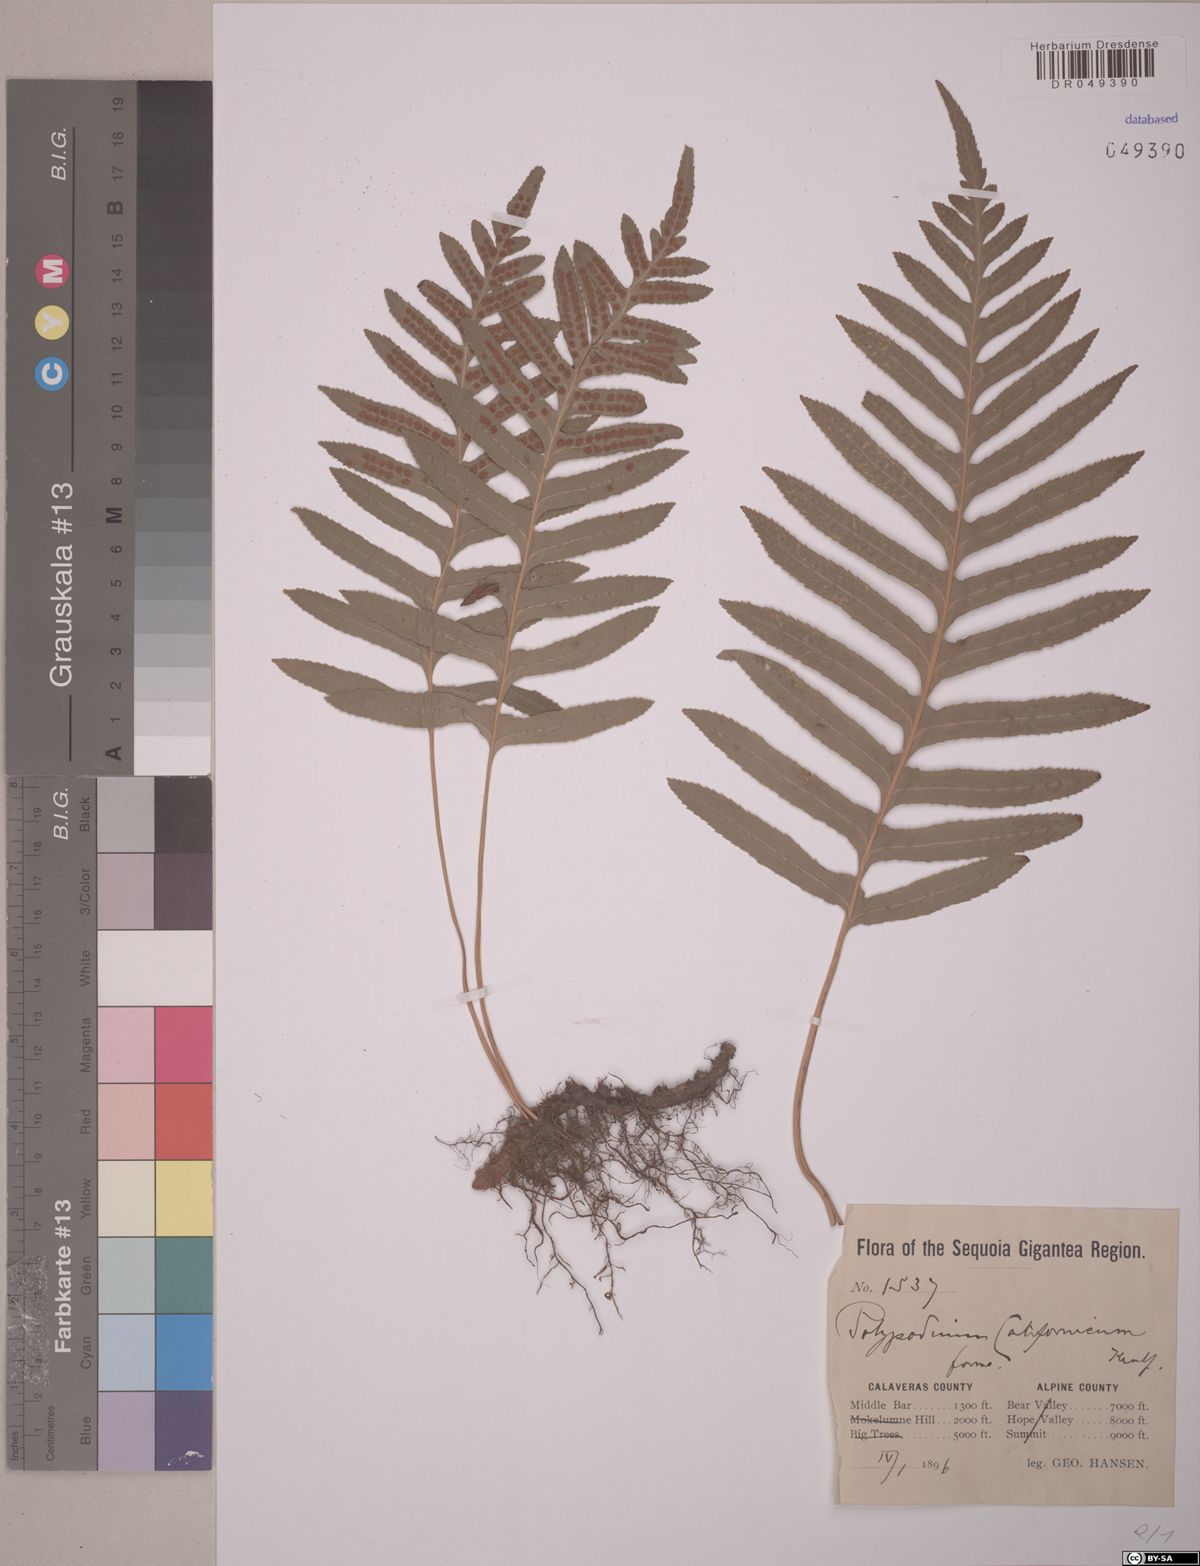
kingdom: Plantae
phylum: Tracheophyta
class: Polypodiopsida
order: Polypodiales
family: Polypodiaceae
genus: Polypodium
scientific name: Polypodium californicum
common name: California polypody
